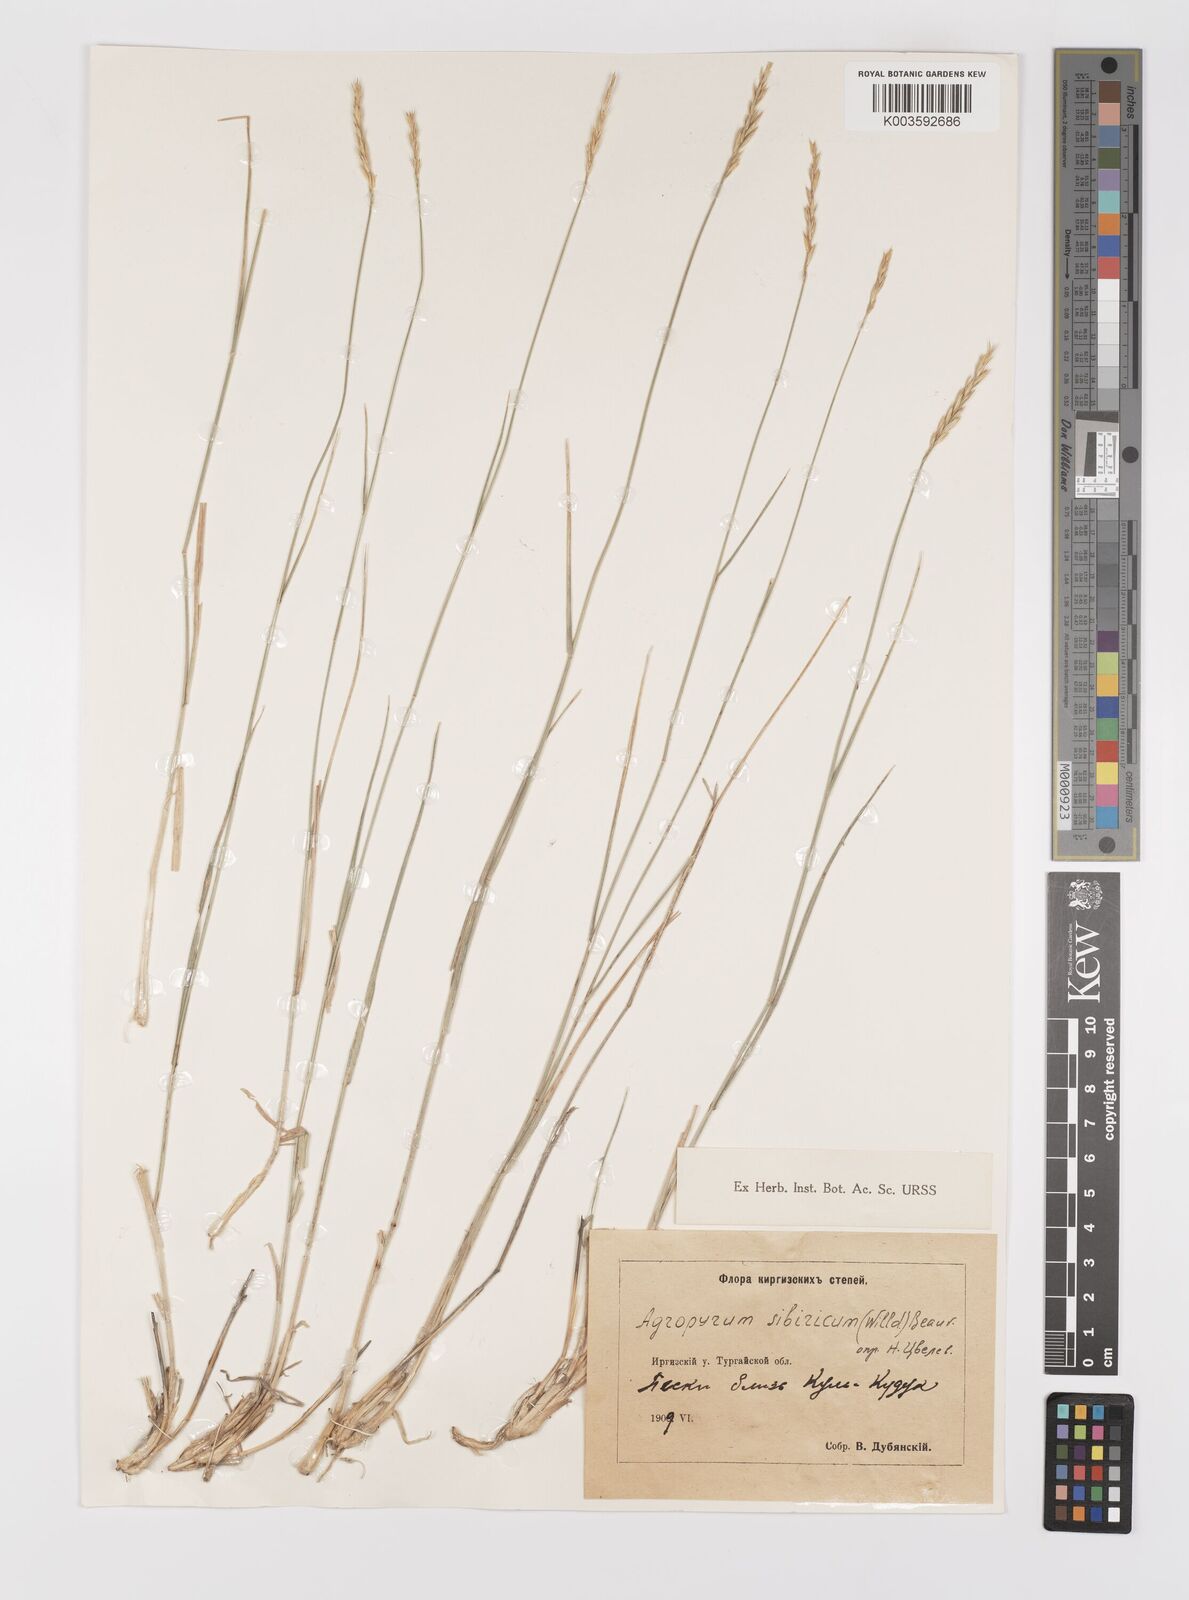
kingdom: Plantae
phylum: Tracheophyta
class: Liliopsida
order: Poales
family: Poaceae
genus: Agropyron
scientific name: Agropyron fragile
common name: Siberian wheatgrass
